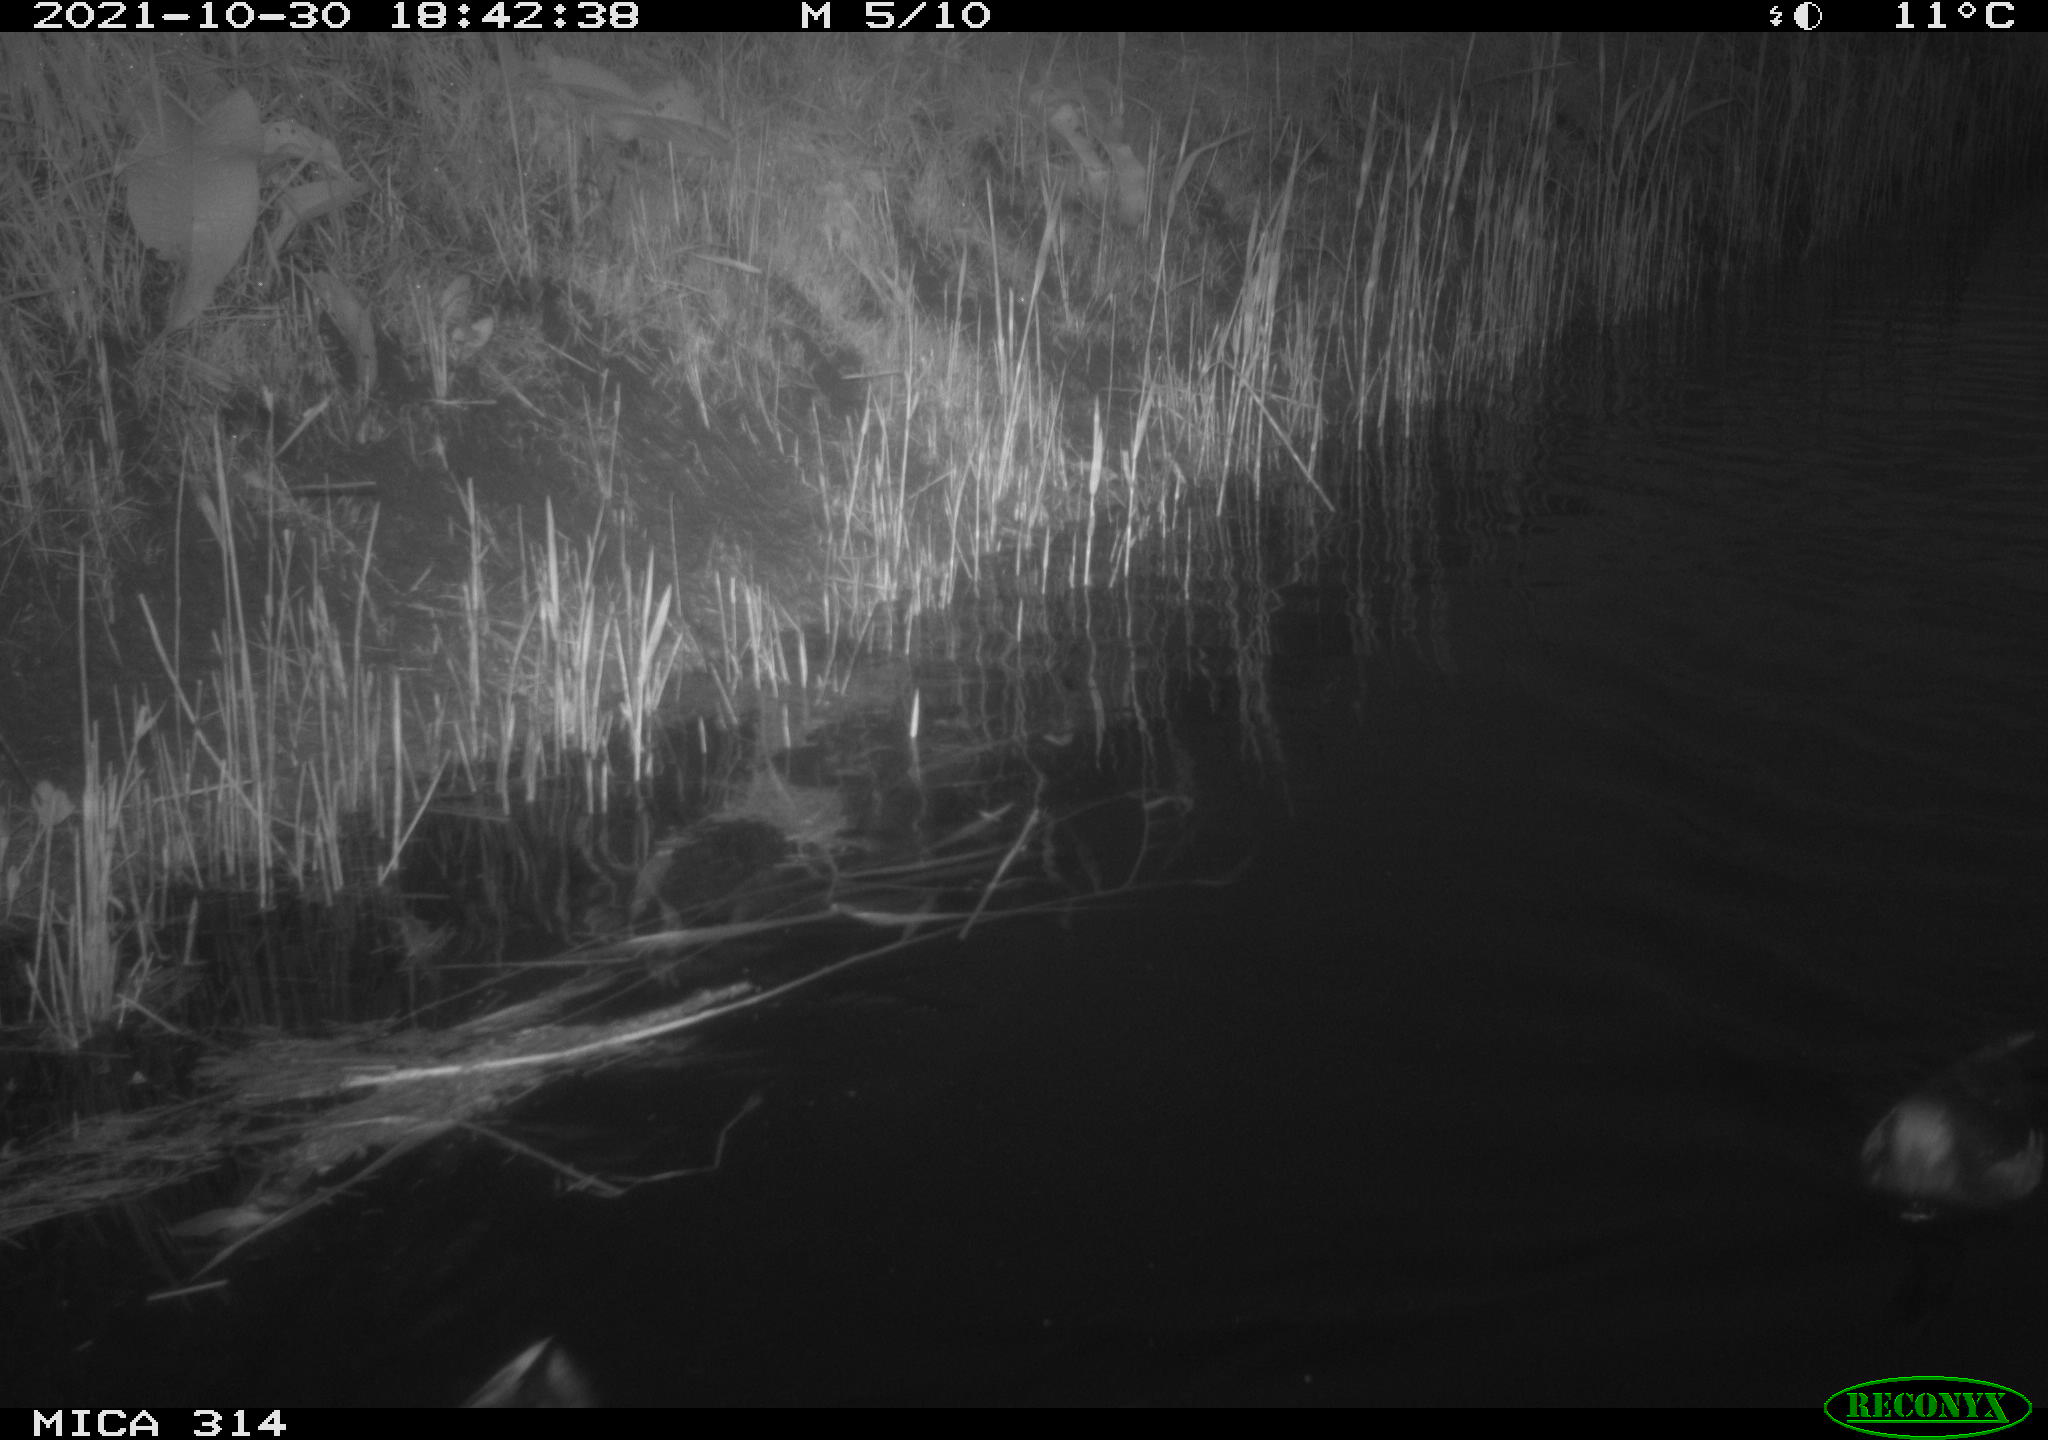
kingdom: Animalia
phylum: Chordata
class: Aves
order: Gruiformes
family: Rallidae
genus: Gallinula
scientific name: Gallinula chloropus
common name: Common moorhen
